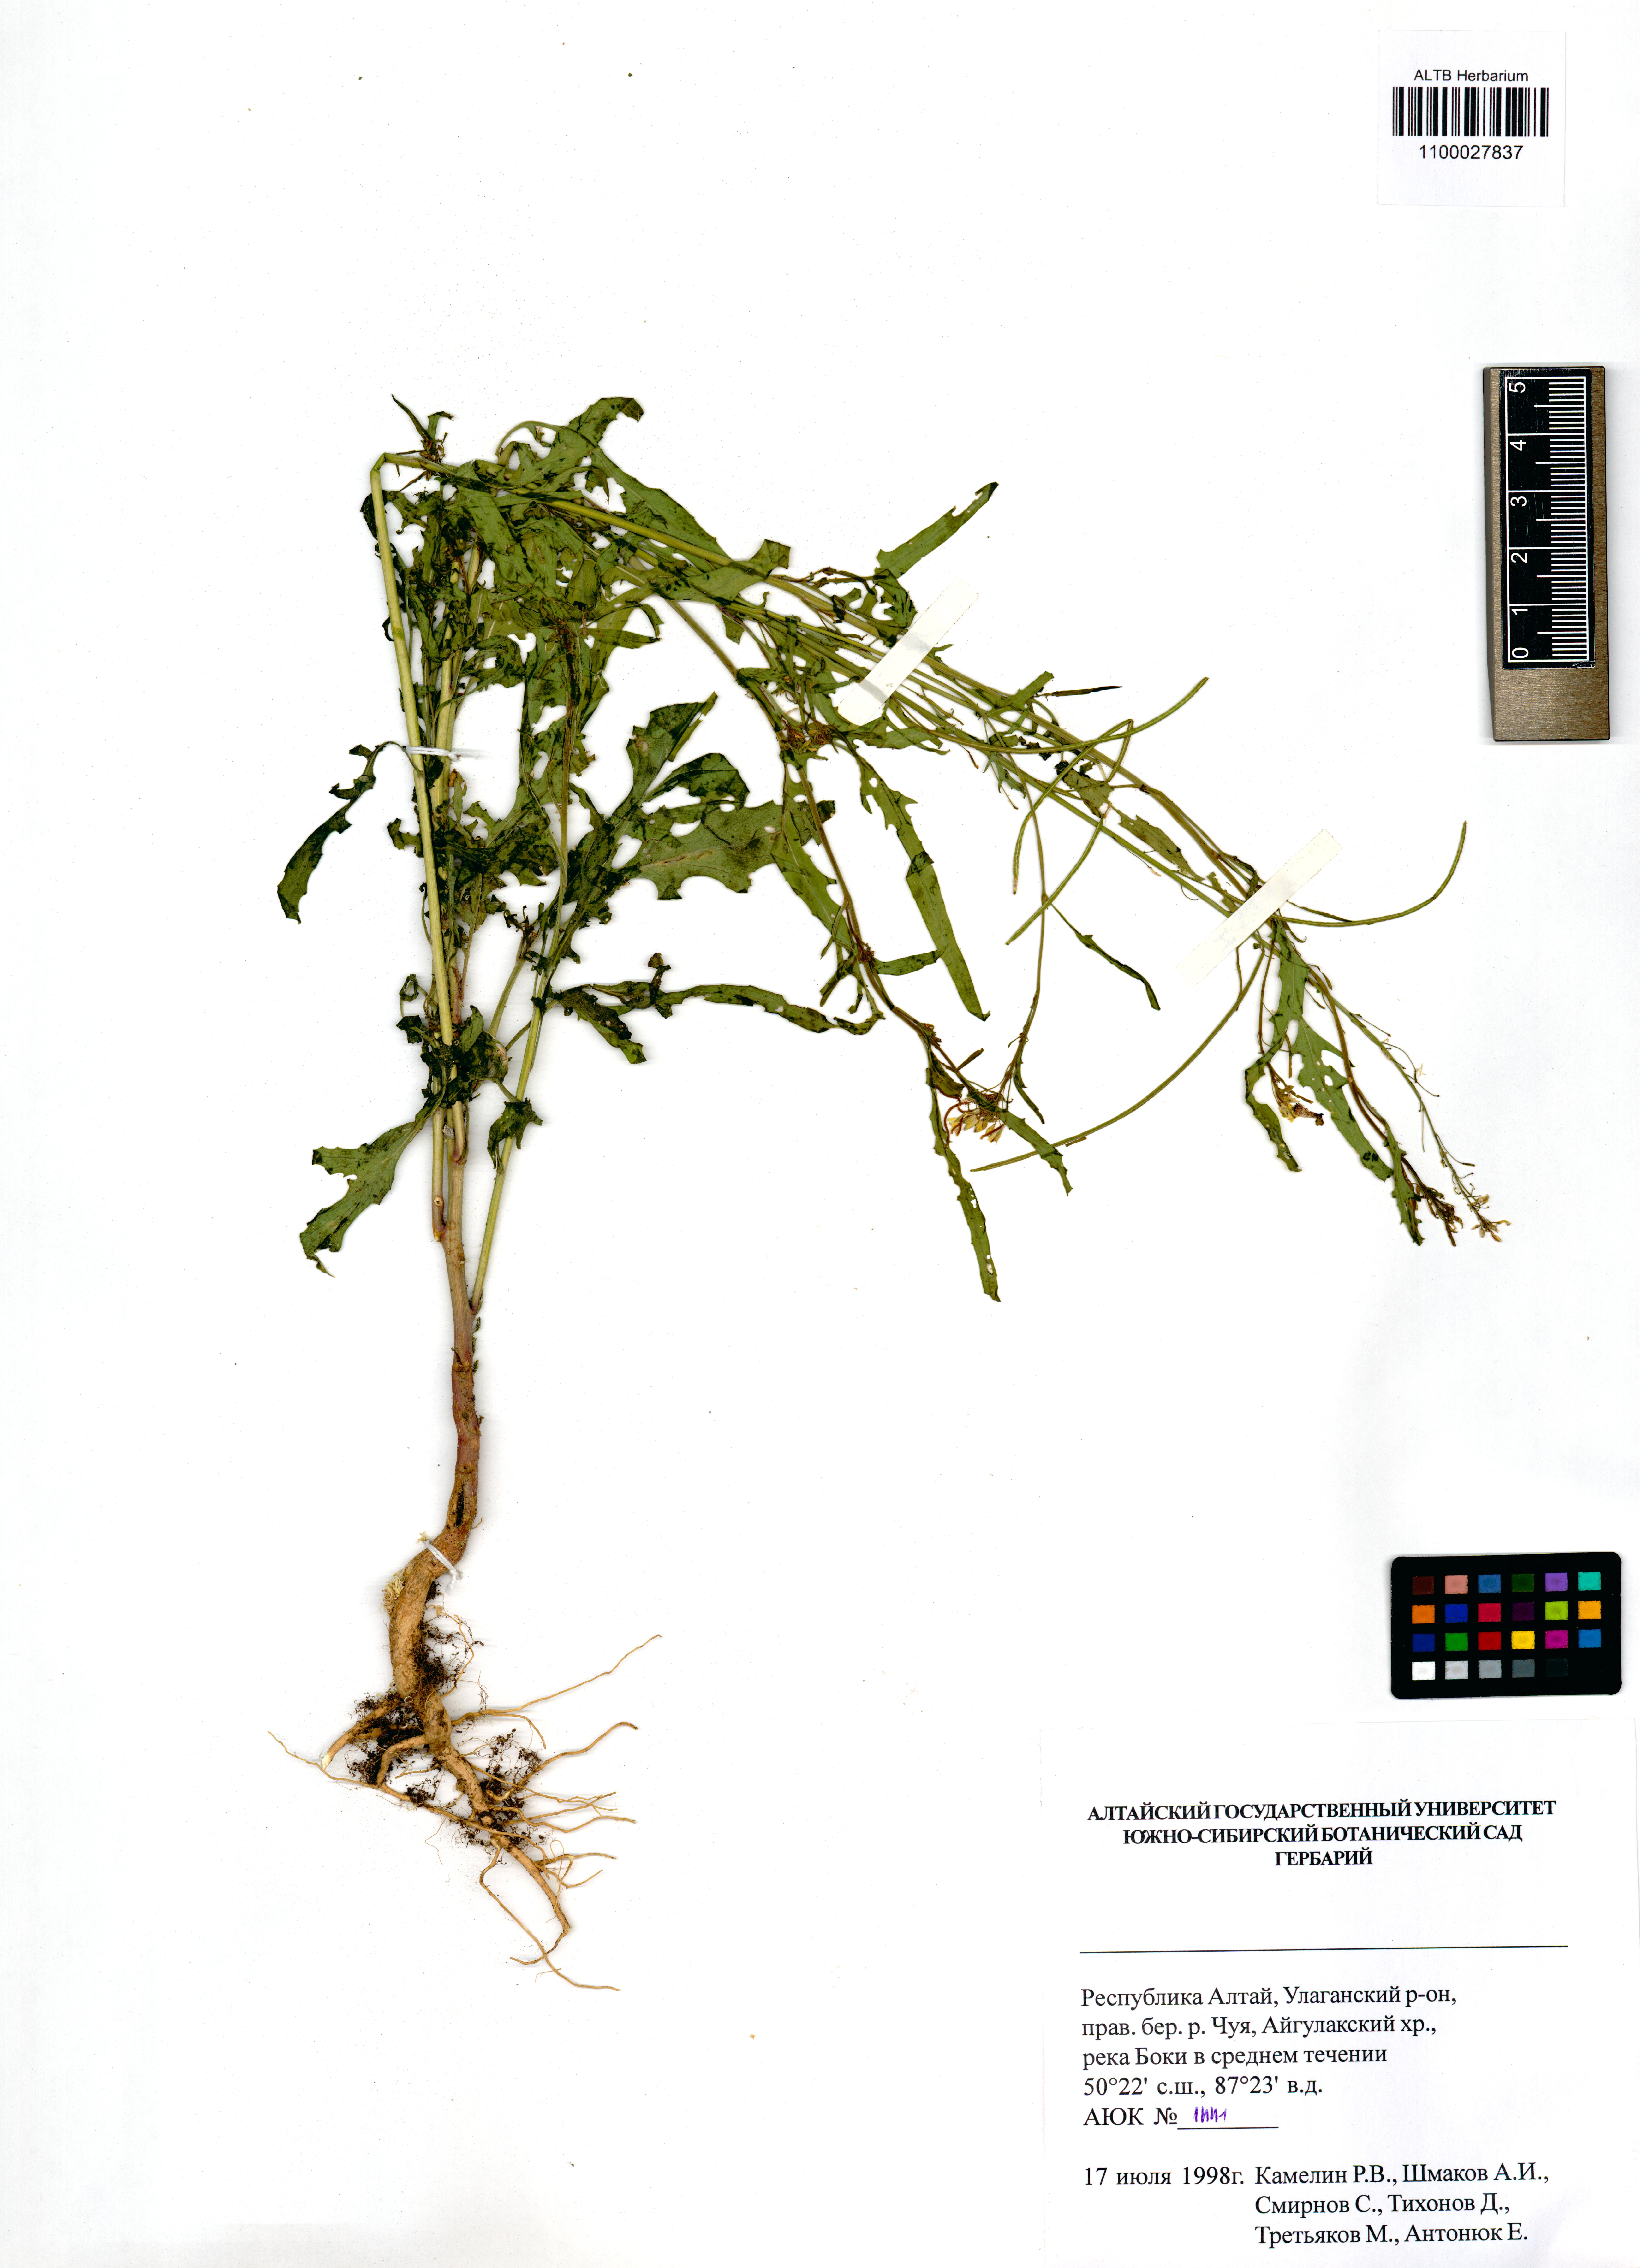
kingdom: Plantae
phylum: Tracheophyta
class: Magnoliopsida
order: Brassicales
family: Brassicaceae
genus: Sisymbrium
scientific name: Sisymbrium heteromallum
